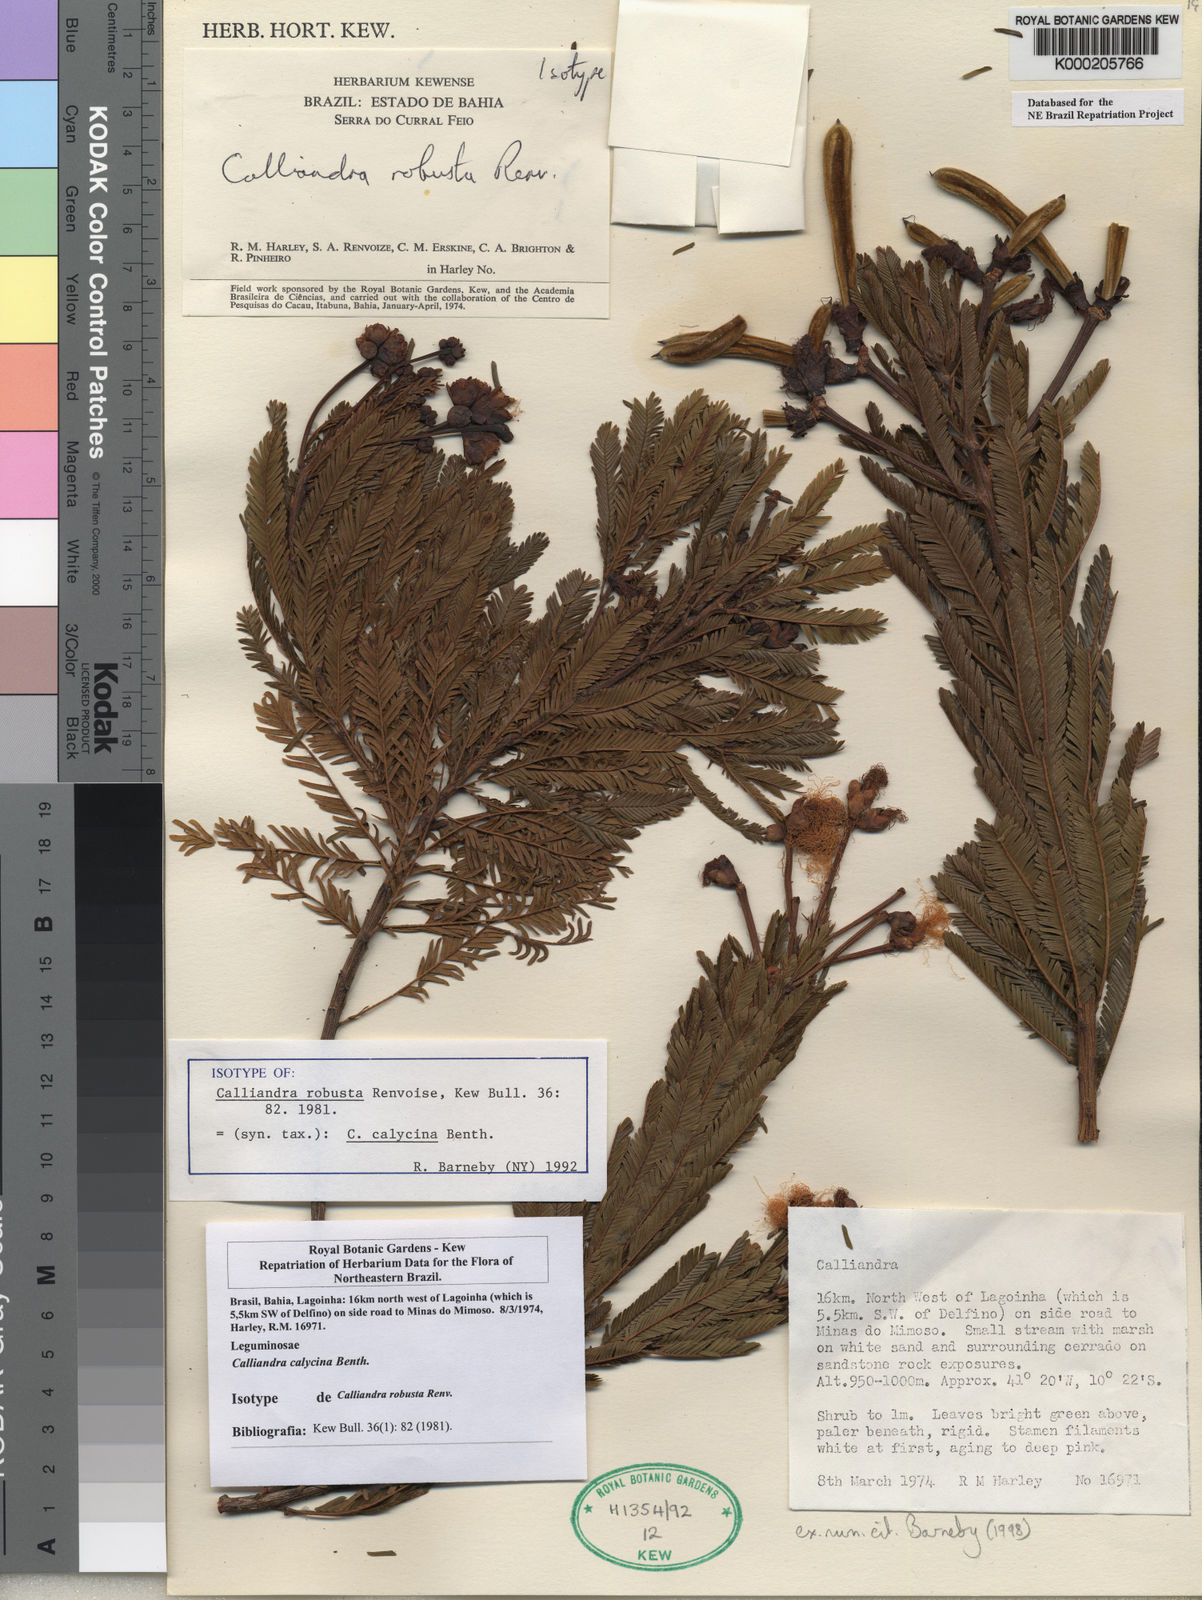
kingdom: Plantae
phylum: Tracheophyta
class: Magnoliopsida
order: Fabales
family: Fabaceae
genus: Calliandra
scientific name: Calliandra calycina
